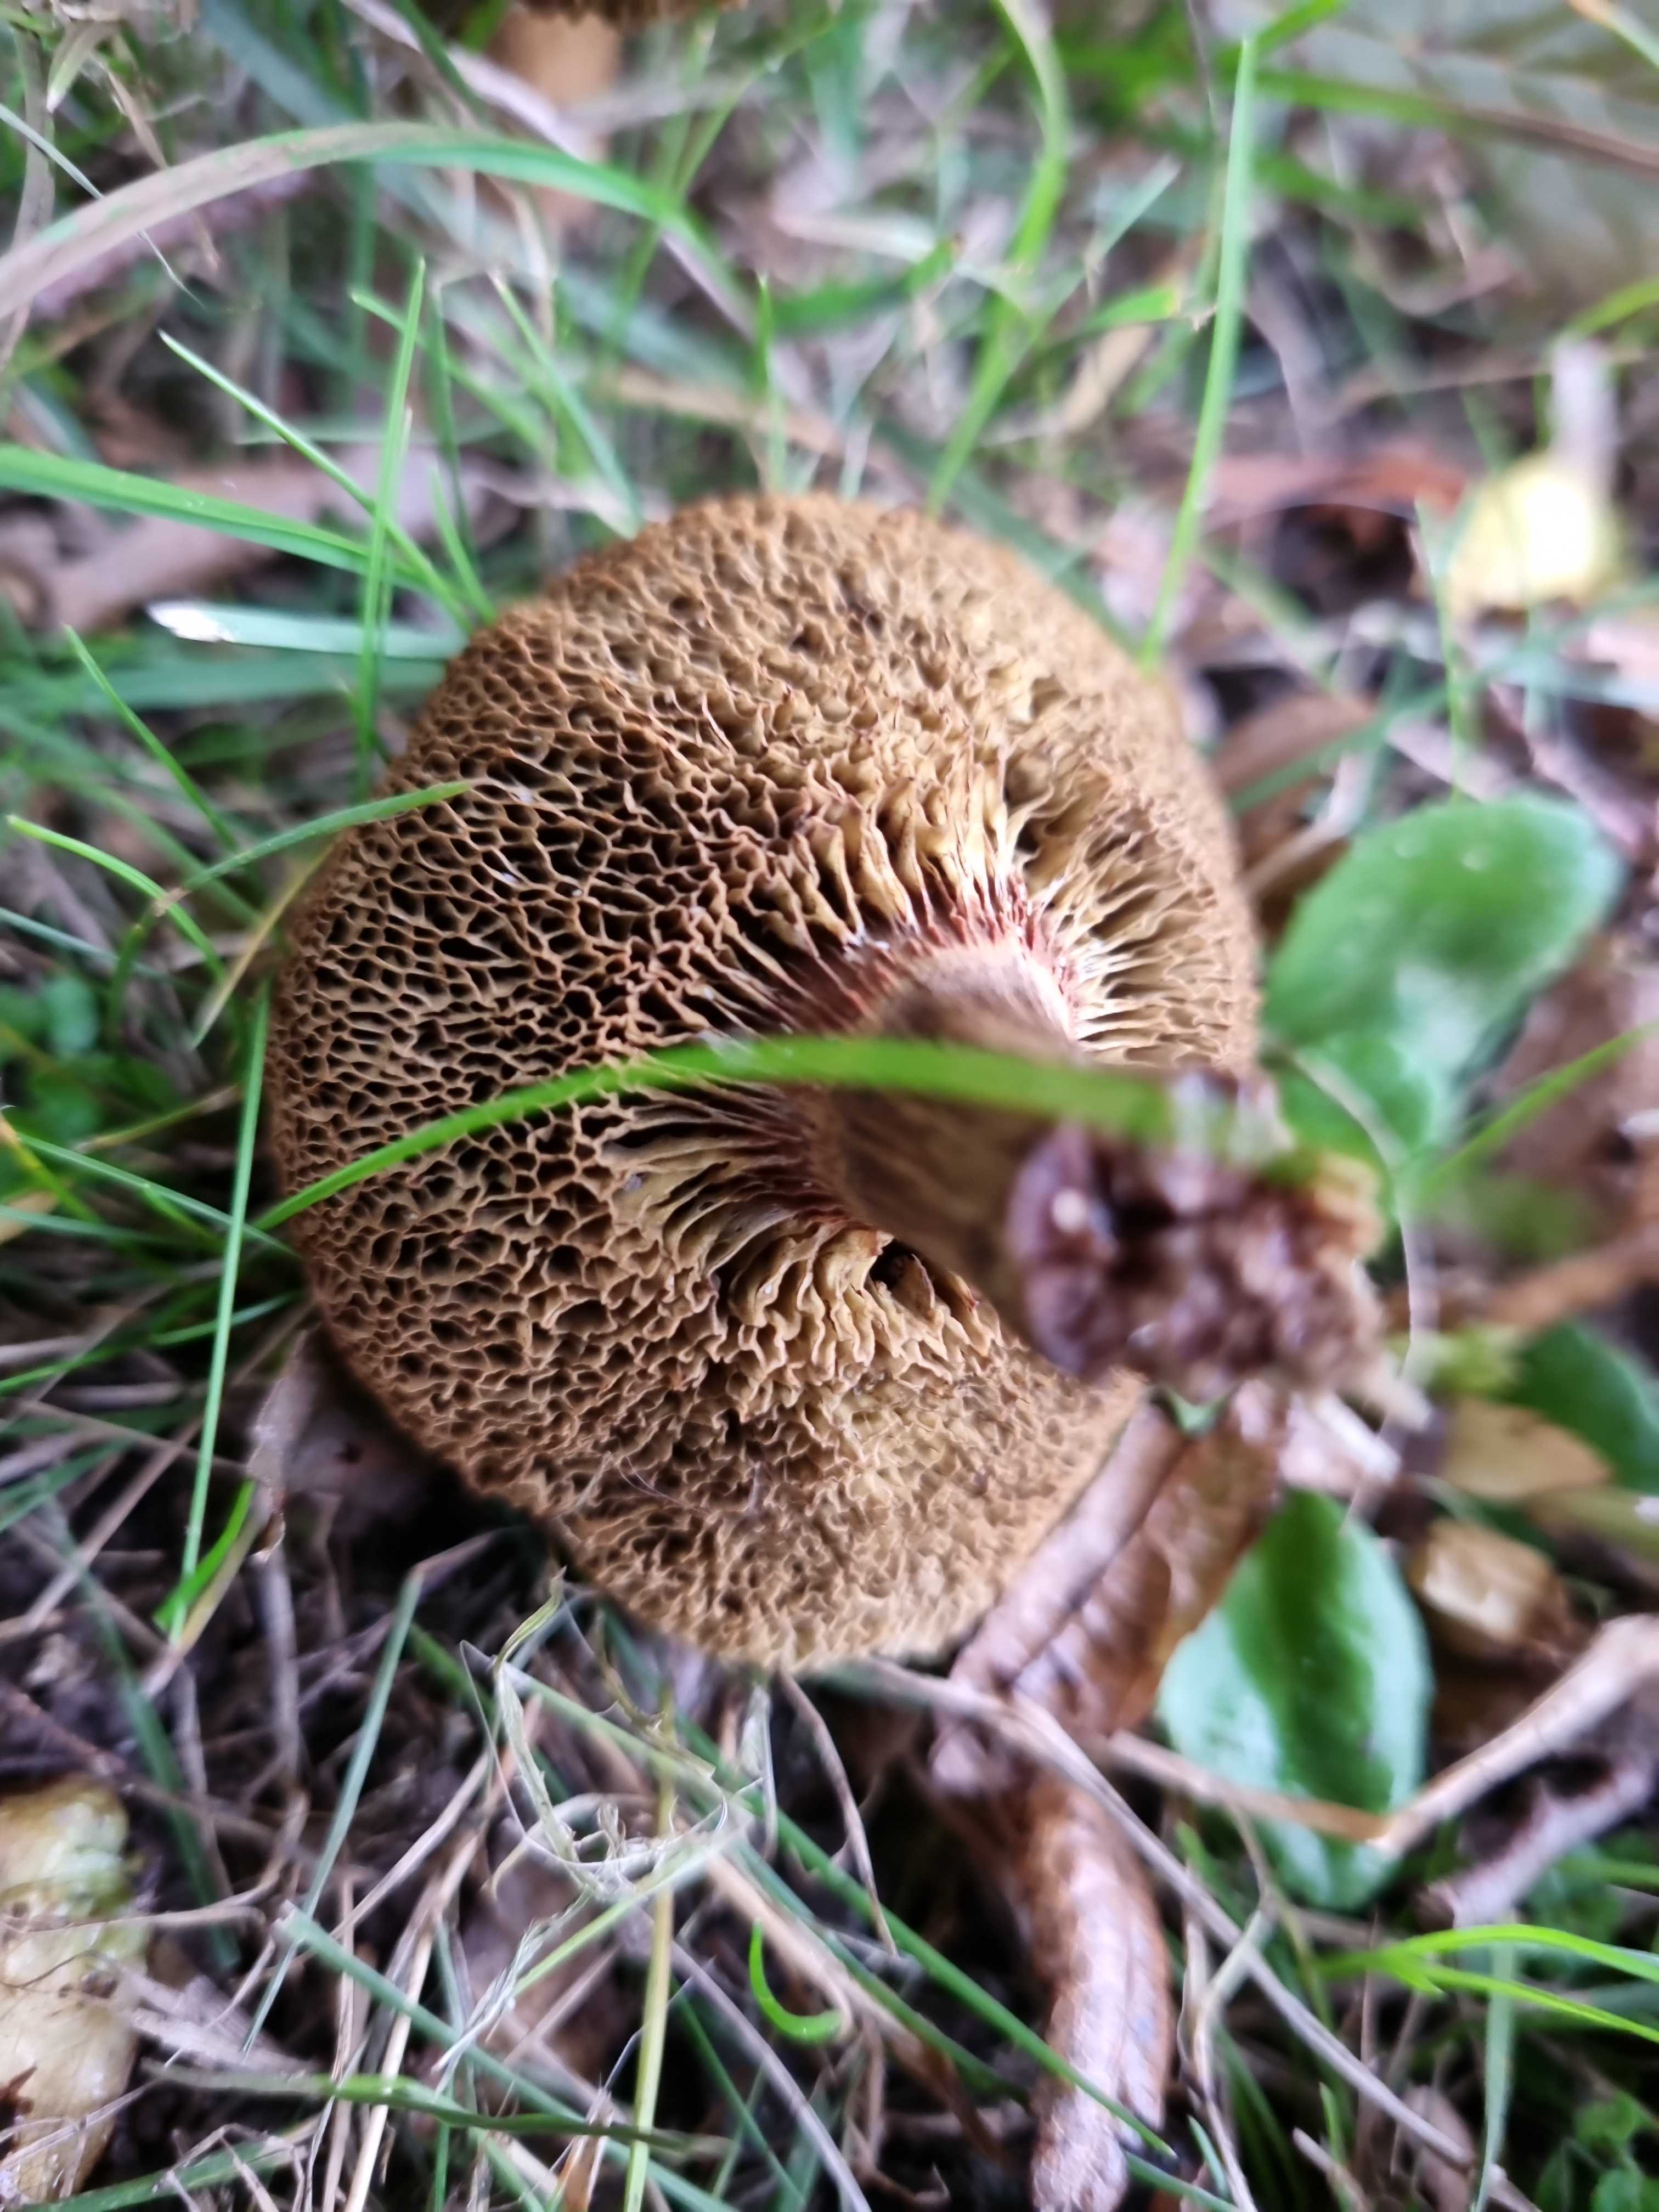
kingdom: Fungi
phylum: Basidiomycota
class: Agaricomycetes
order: Boletales
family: Boletaceae
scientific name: Boletaceae
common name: rørhatfamilien
